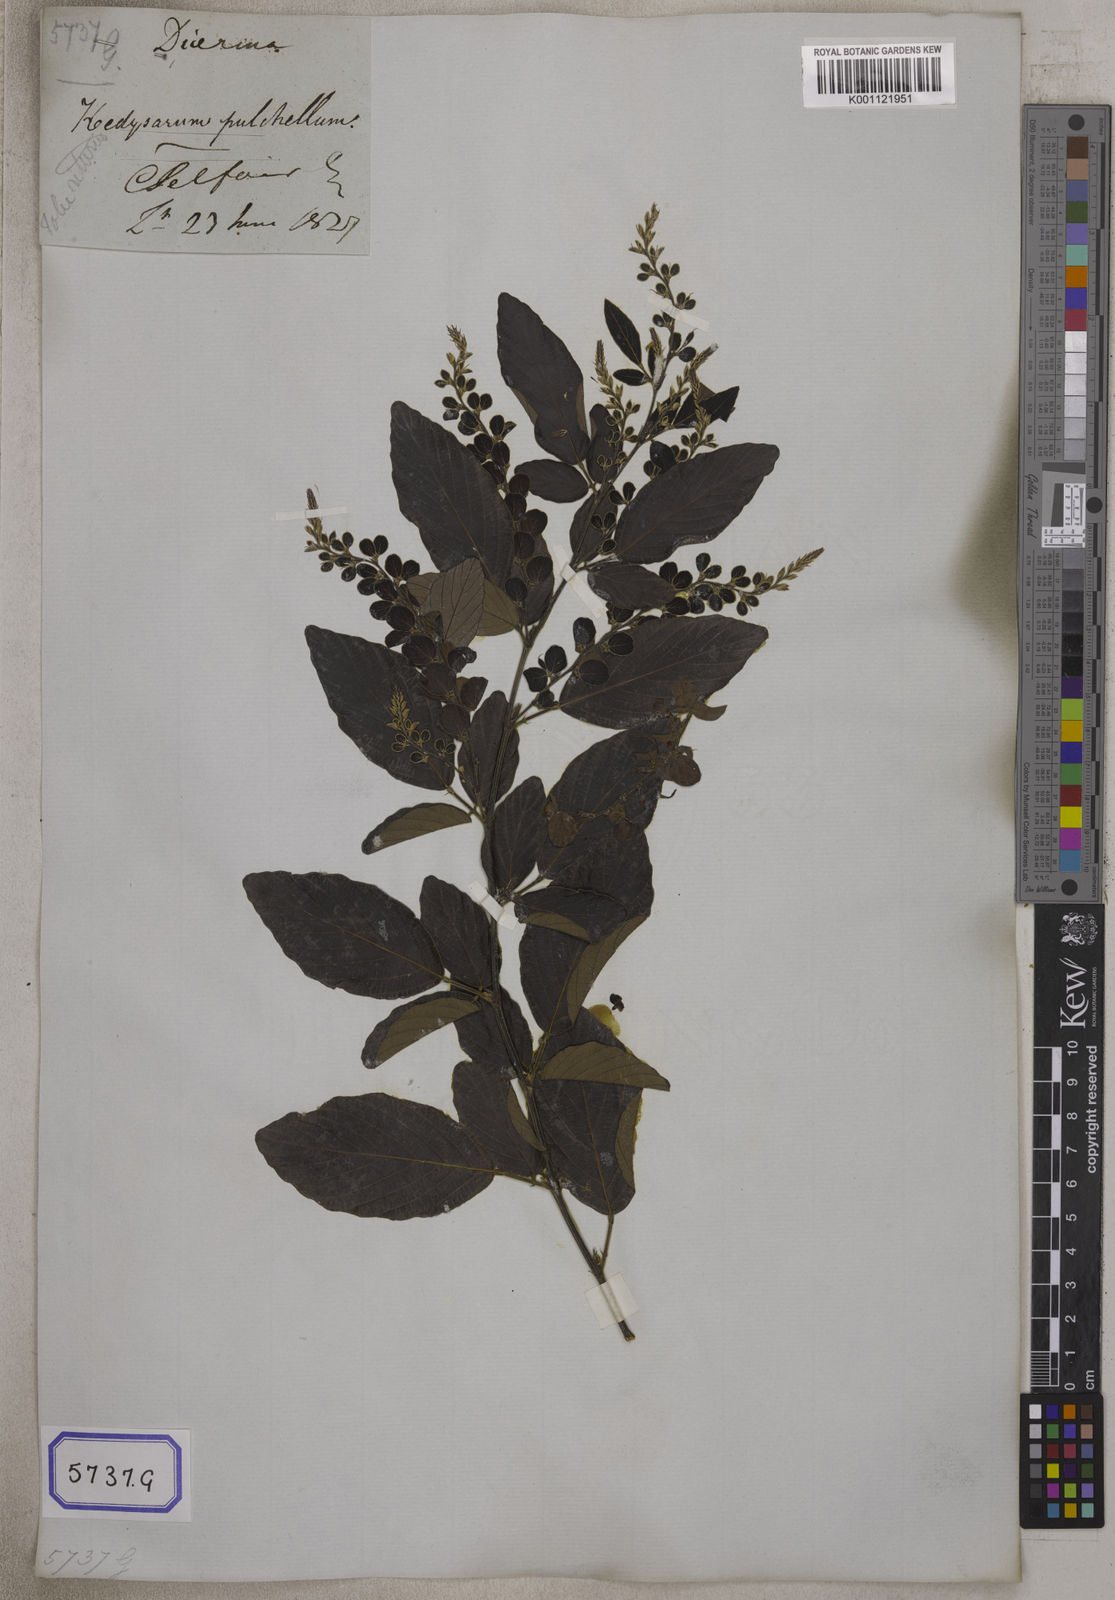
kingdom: Plantae
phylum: Tracheophyta
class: Magnoliopsida
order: Fabales
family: Fabaceae
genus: Phyllodium
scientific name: Phyllodium pulchellum
